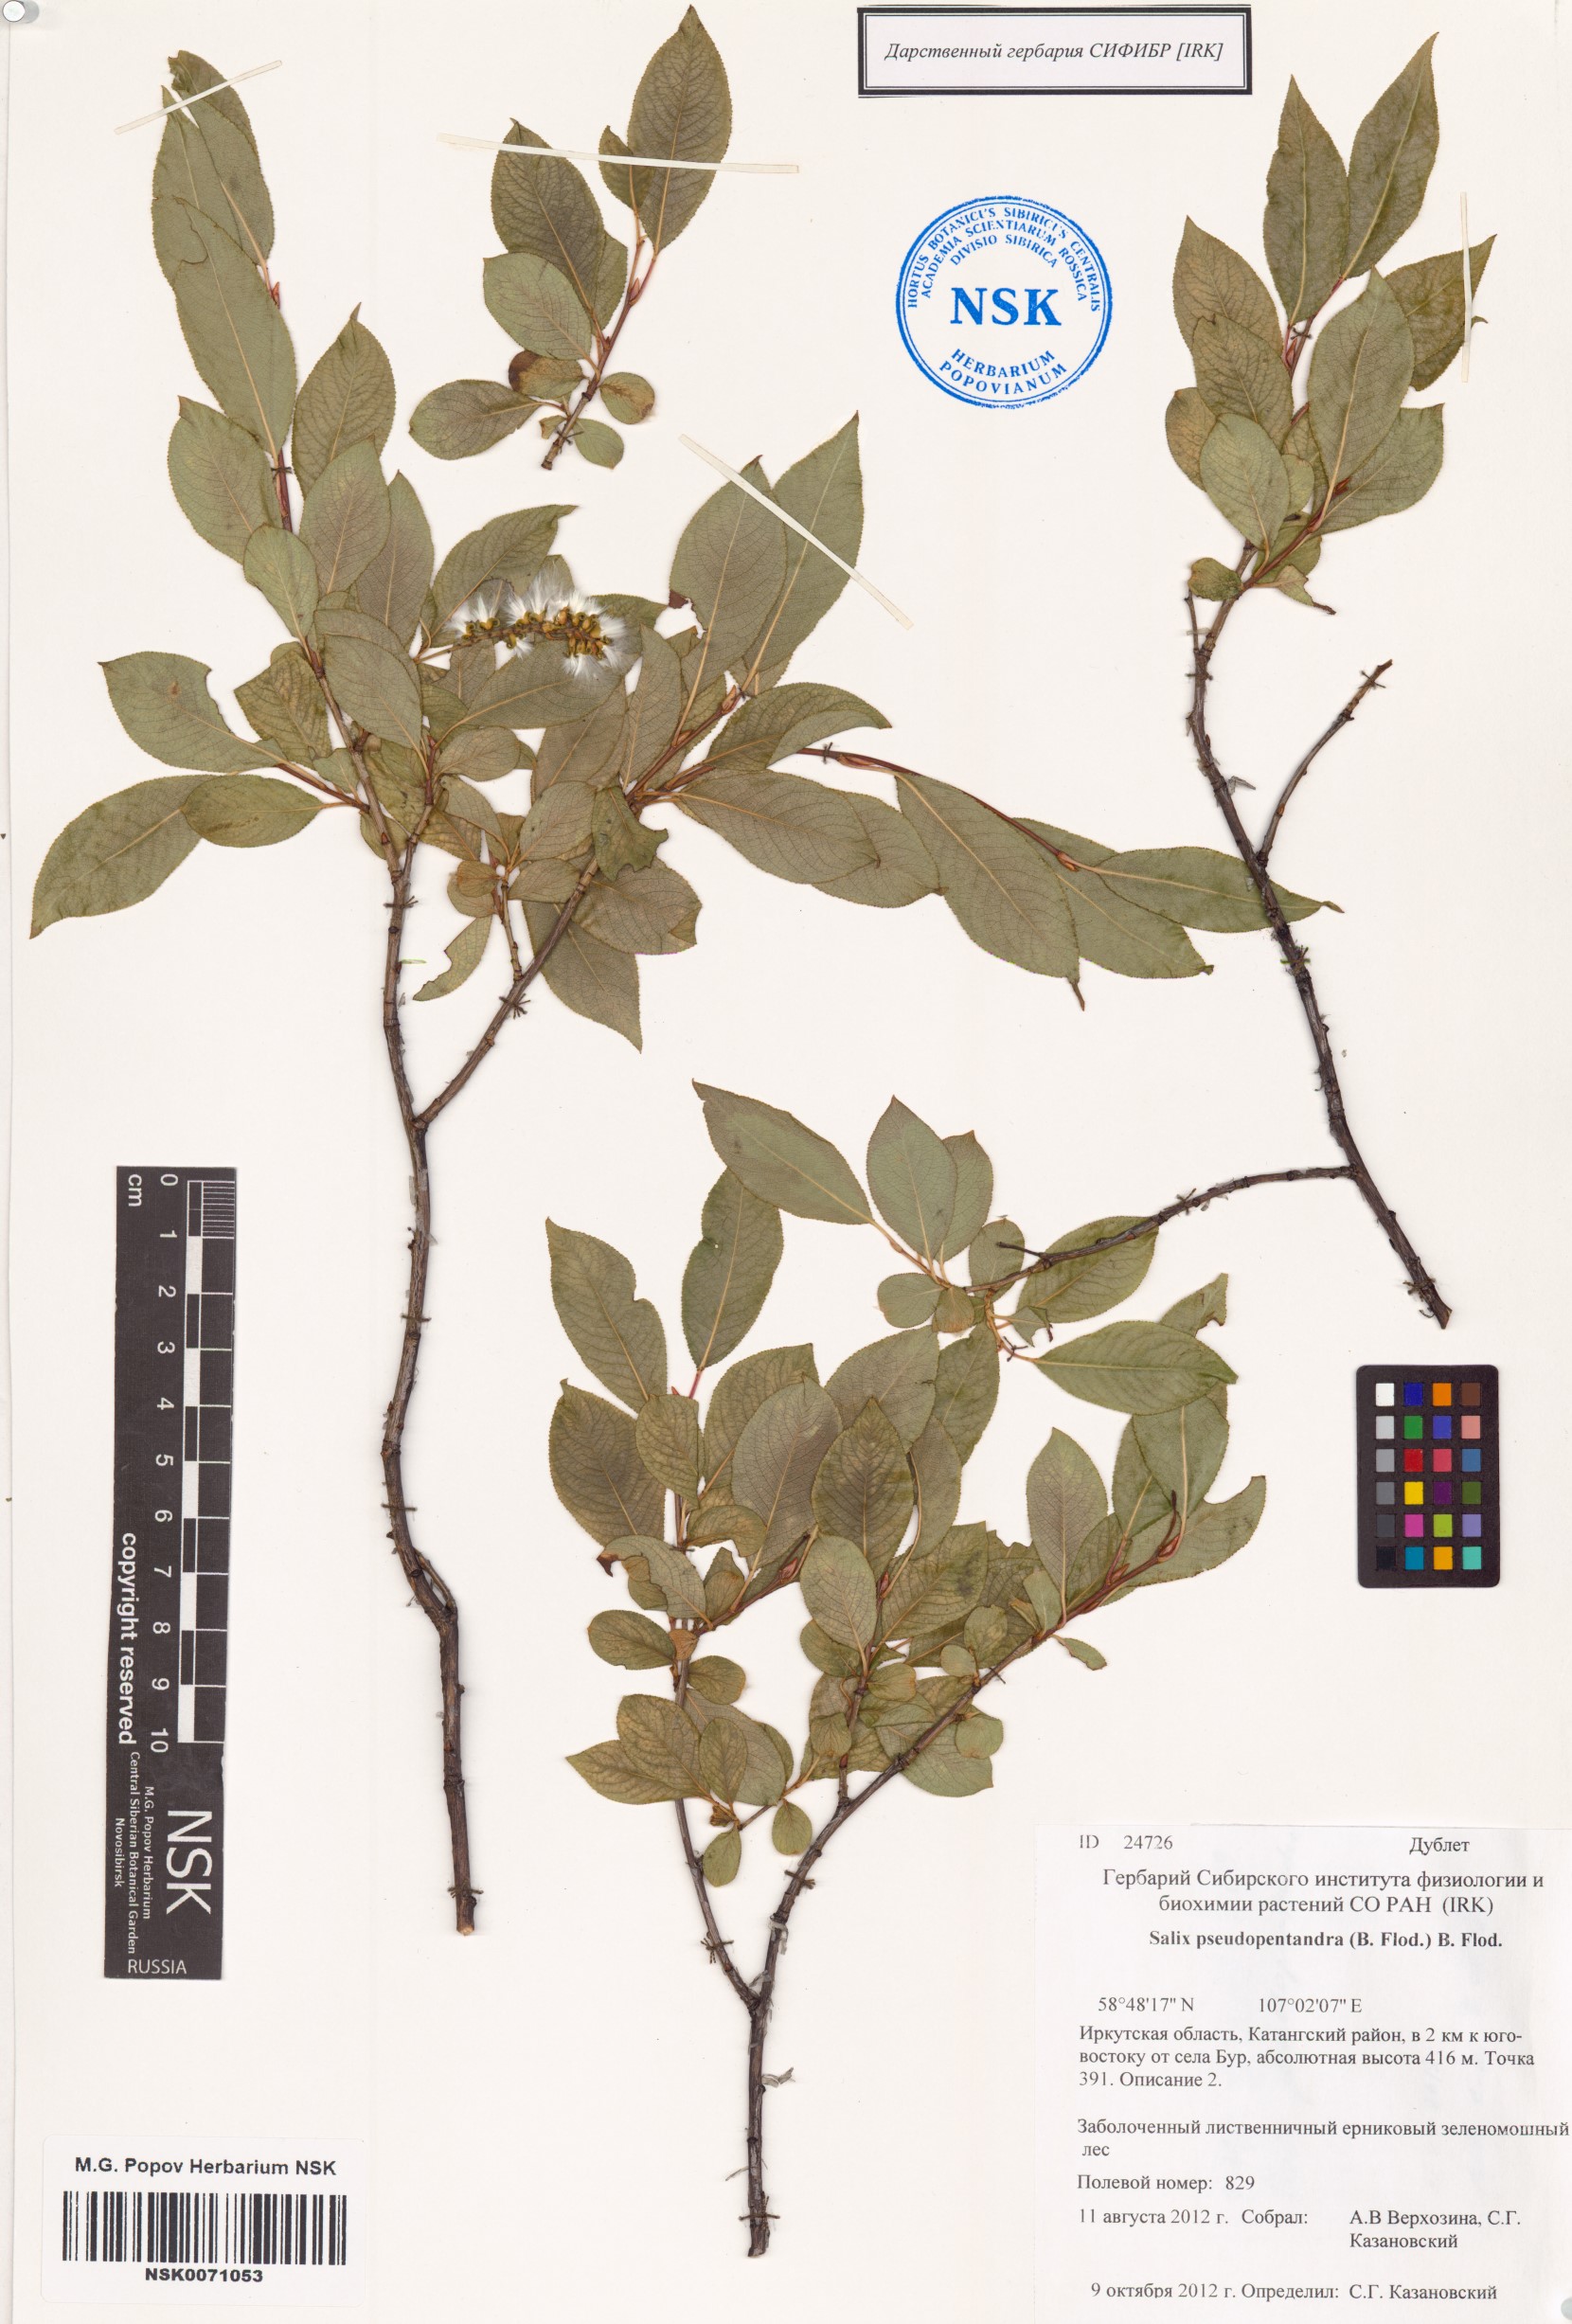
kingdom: Plantae
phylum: Tracheophyta
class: Magnoliopsida
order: Malpighiales
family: Salicaceae
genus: Salix
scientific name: Salix pseudopentandra
